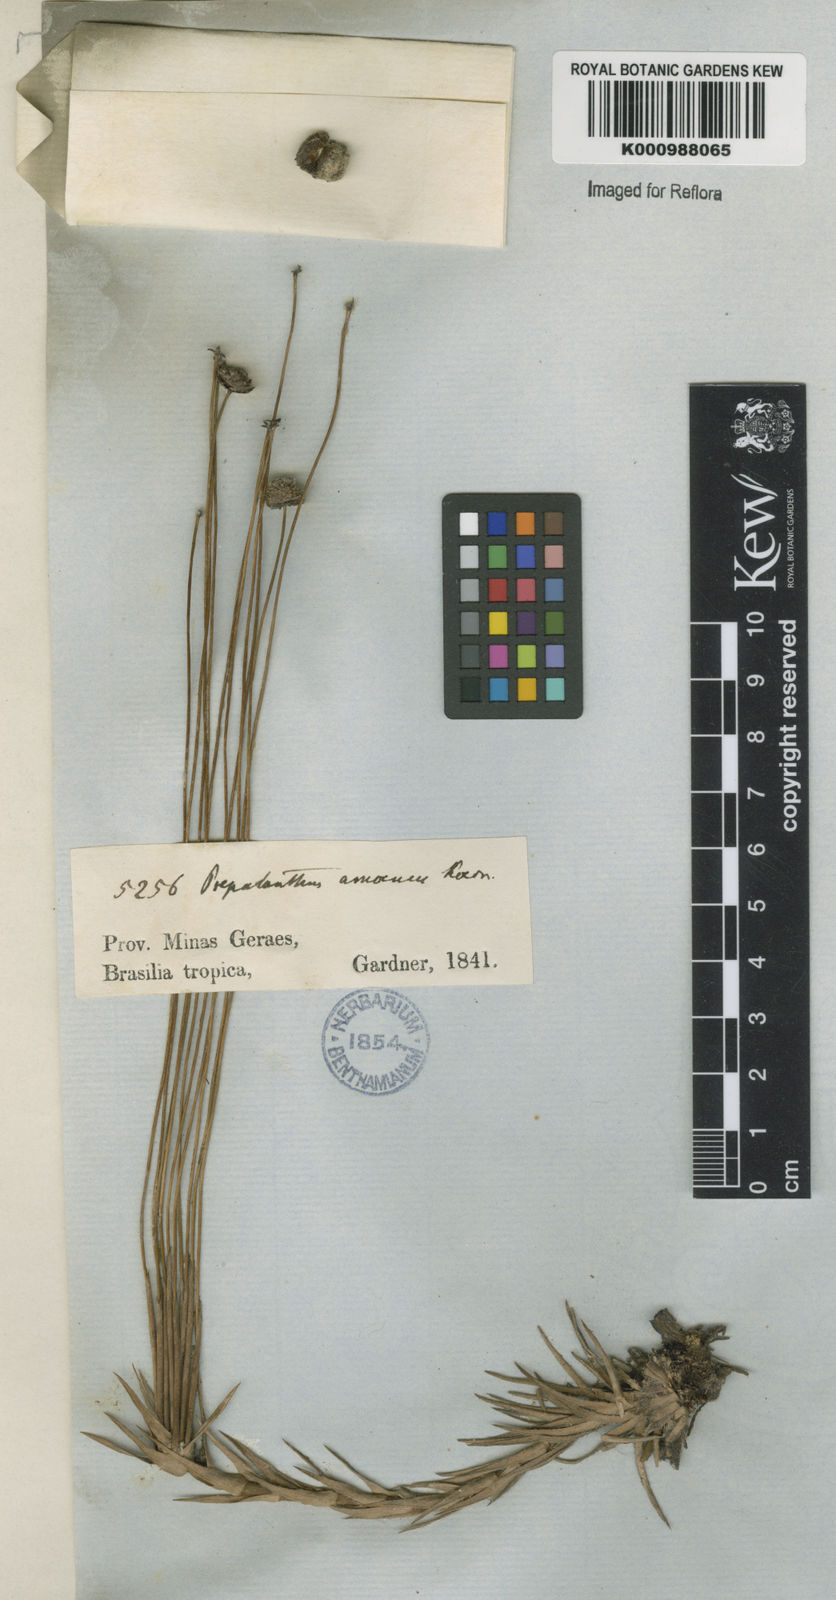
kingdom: Plantae
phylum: Tracheophyta
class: Liliopsida
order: Poales
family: Eriocaulaceae
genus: Paepalanthus
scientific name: Paepalanthus
